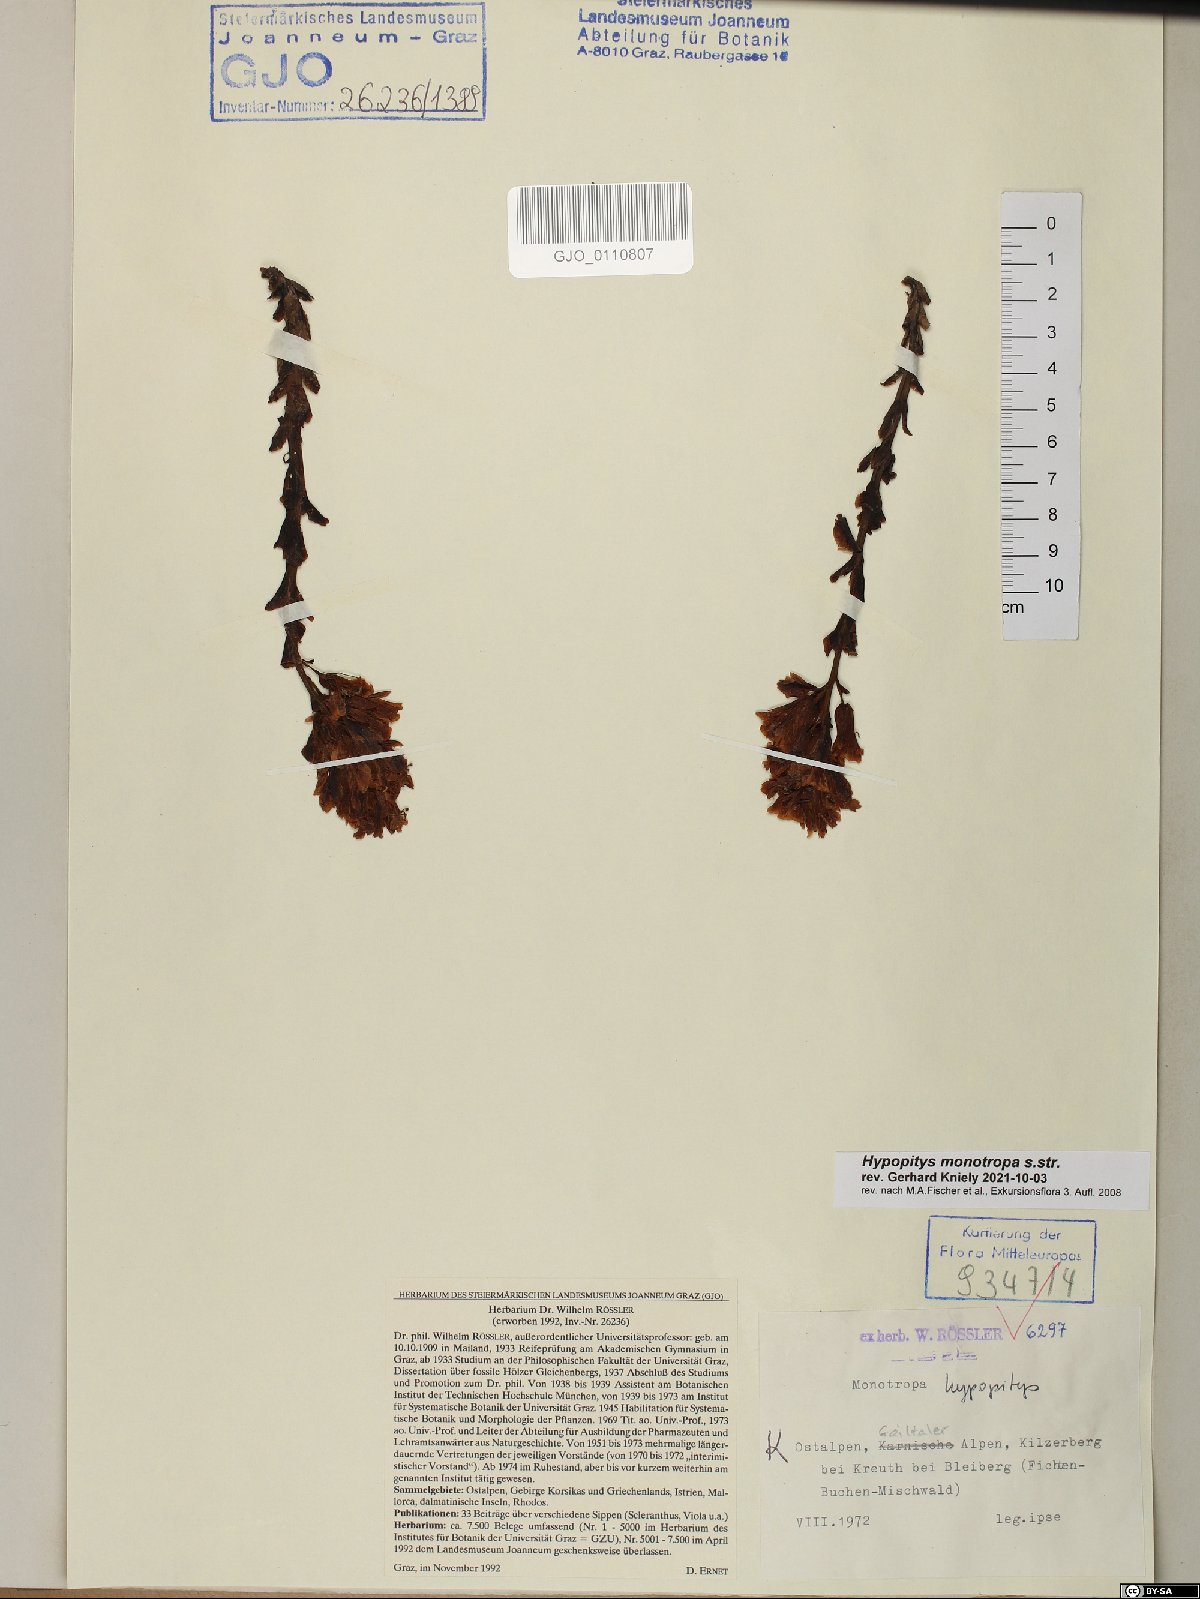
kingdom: Plantae
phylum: Tracheophyta
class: Magnoliopsida
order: Ericales
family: Ericaceae
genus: Hypopitys
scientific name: Hypopitys monotropa
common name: Yellow bird's-nest
